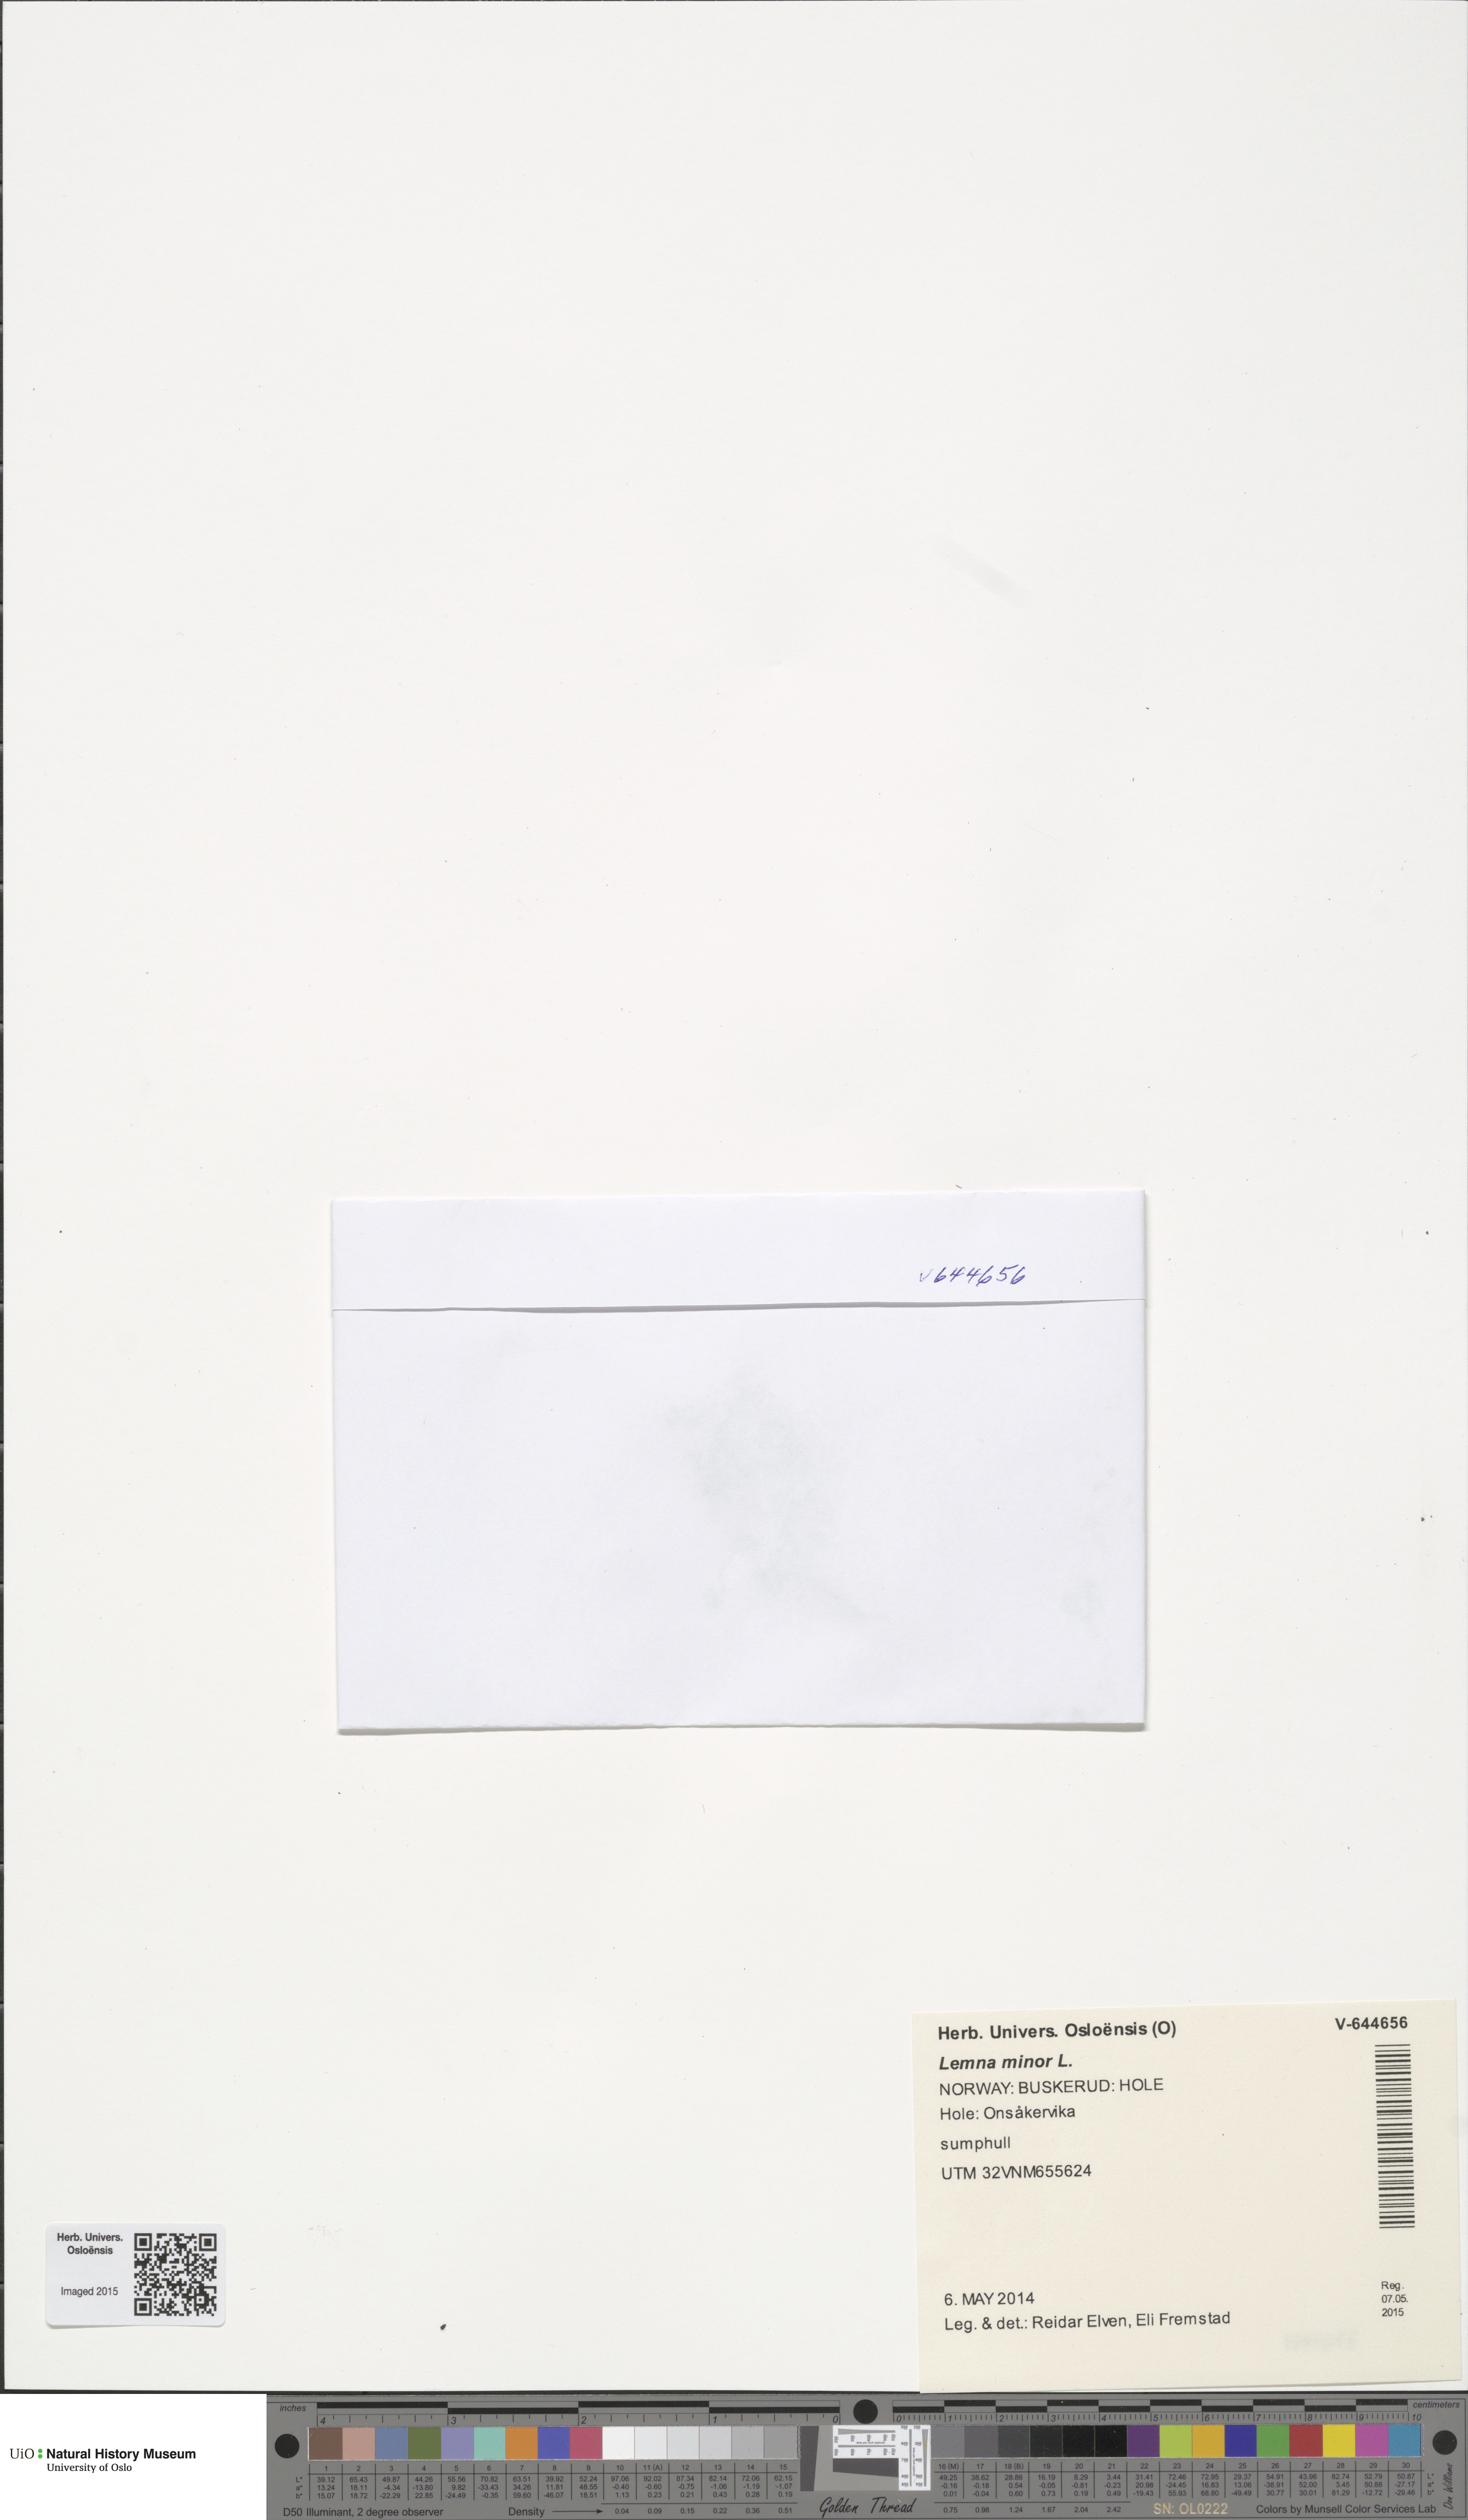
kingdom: Plantae
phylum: Tracheophyta
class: Liliopsida
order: Alismatales
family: Araceae
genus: Lemna
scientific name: Lemna minor
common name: Common duckweed
